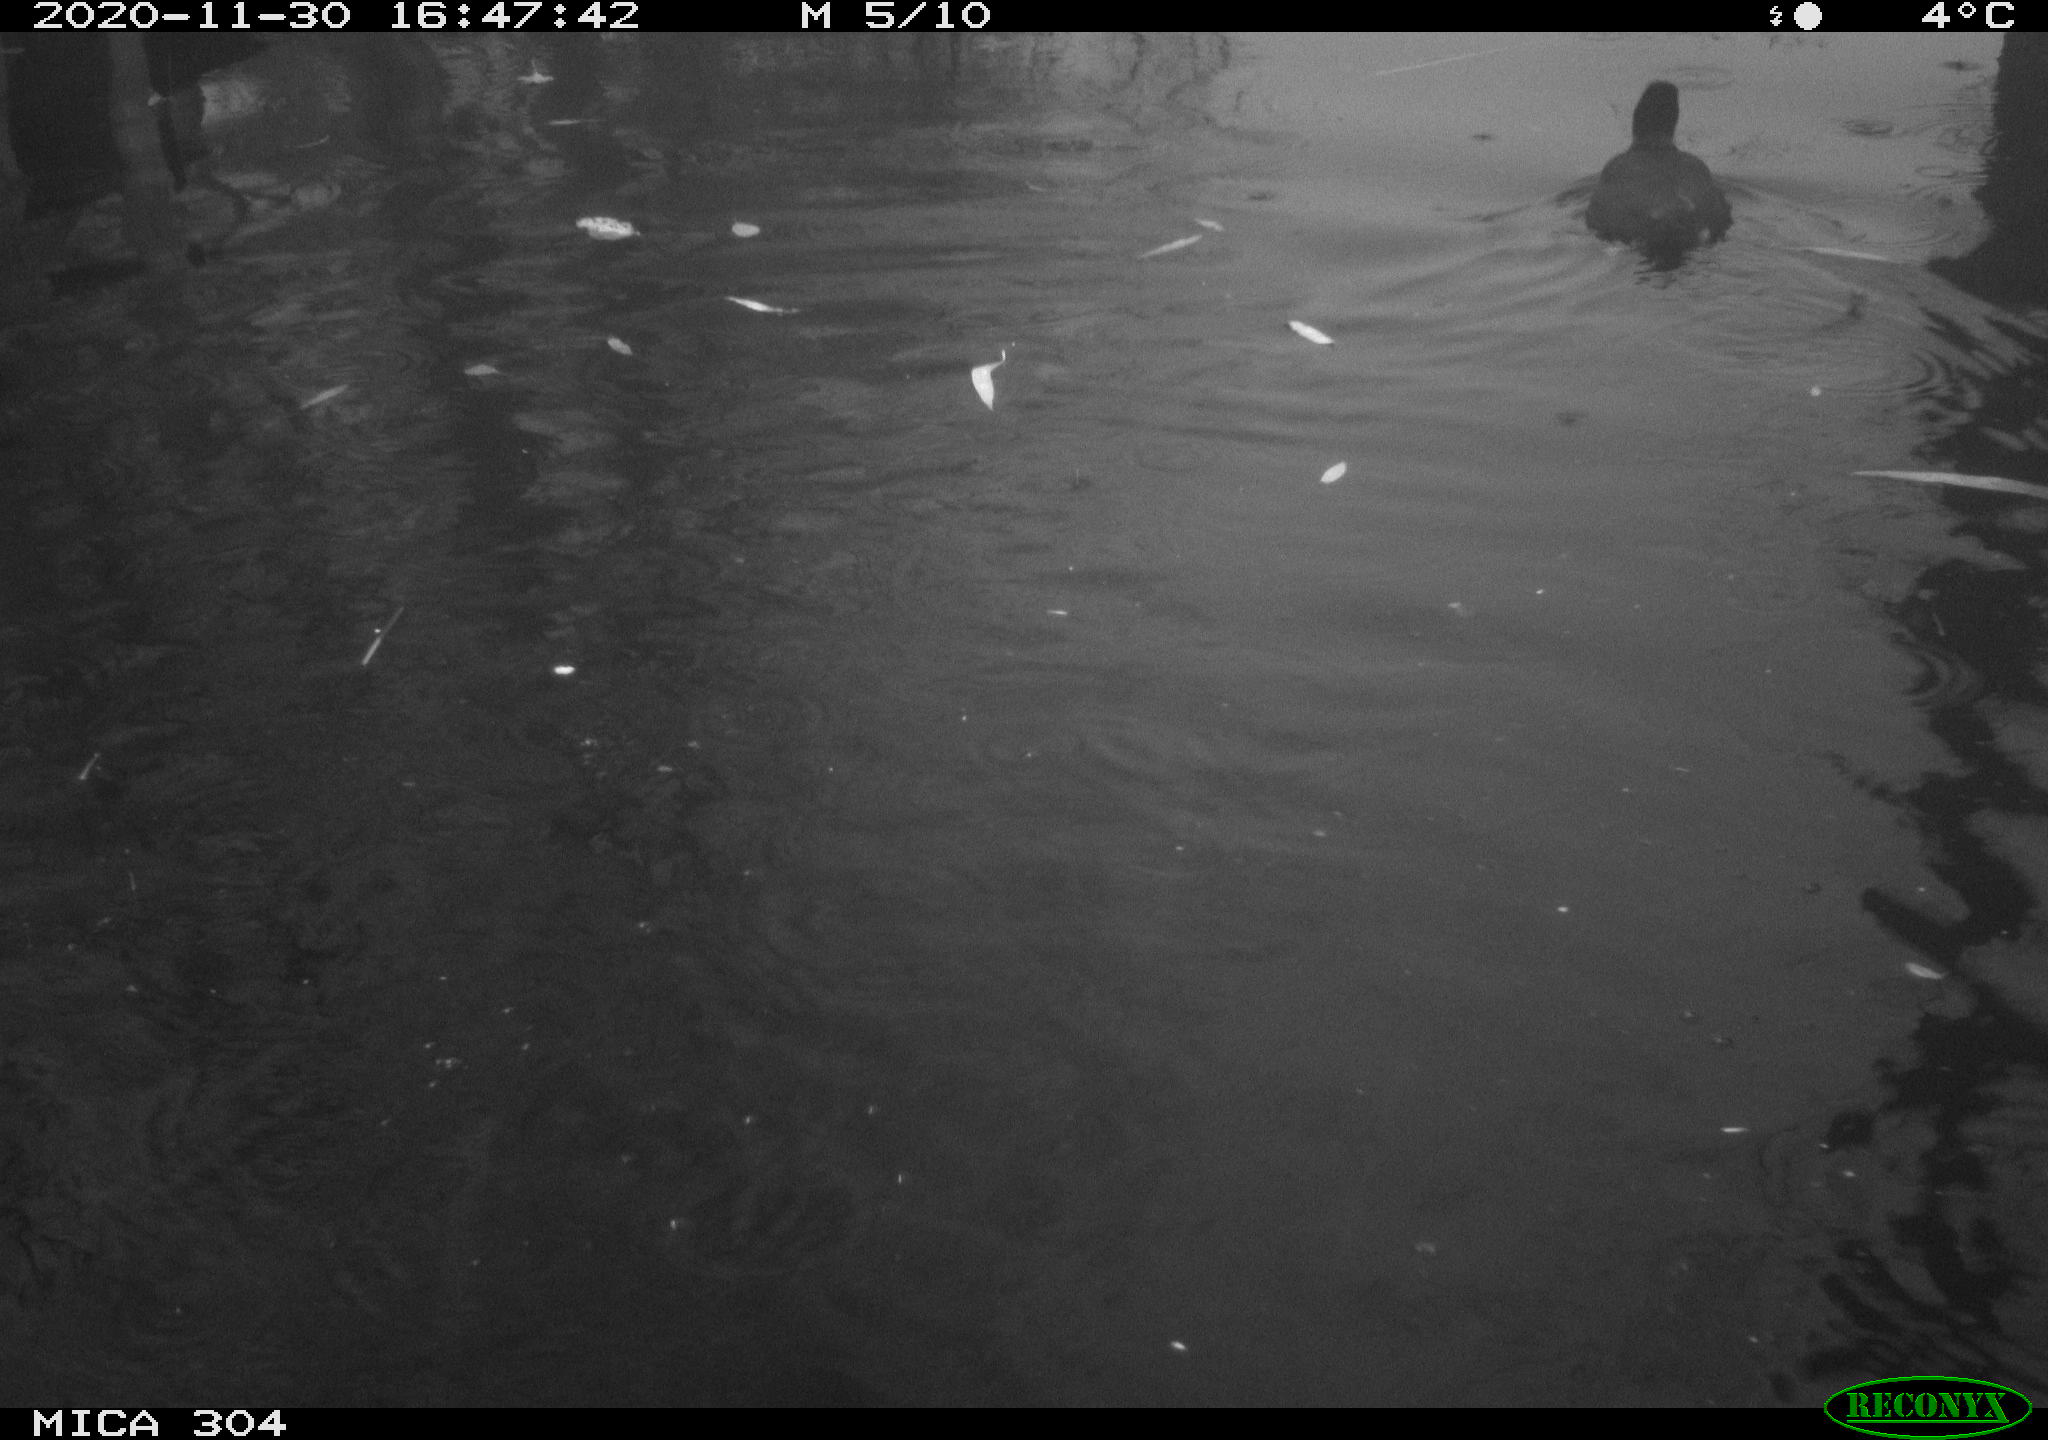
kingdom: Animalia
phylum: Chordata
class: Aves
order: Gruiformes
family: Rallidae
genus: Fulica
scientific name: Fulica atra
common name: Eurasian coot
